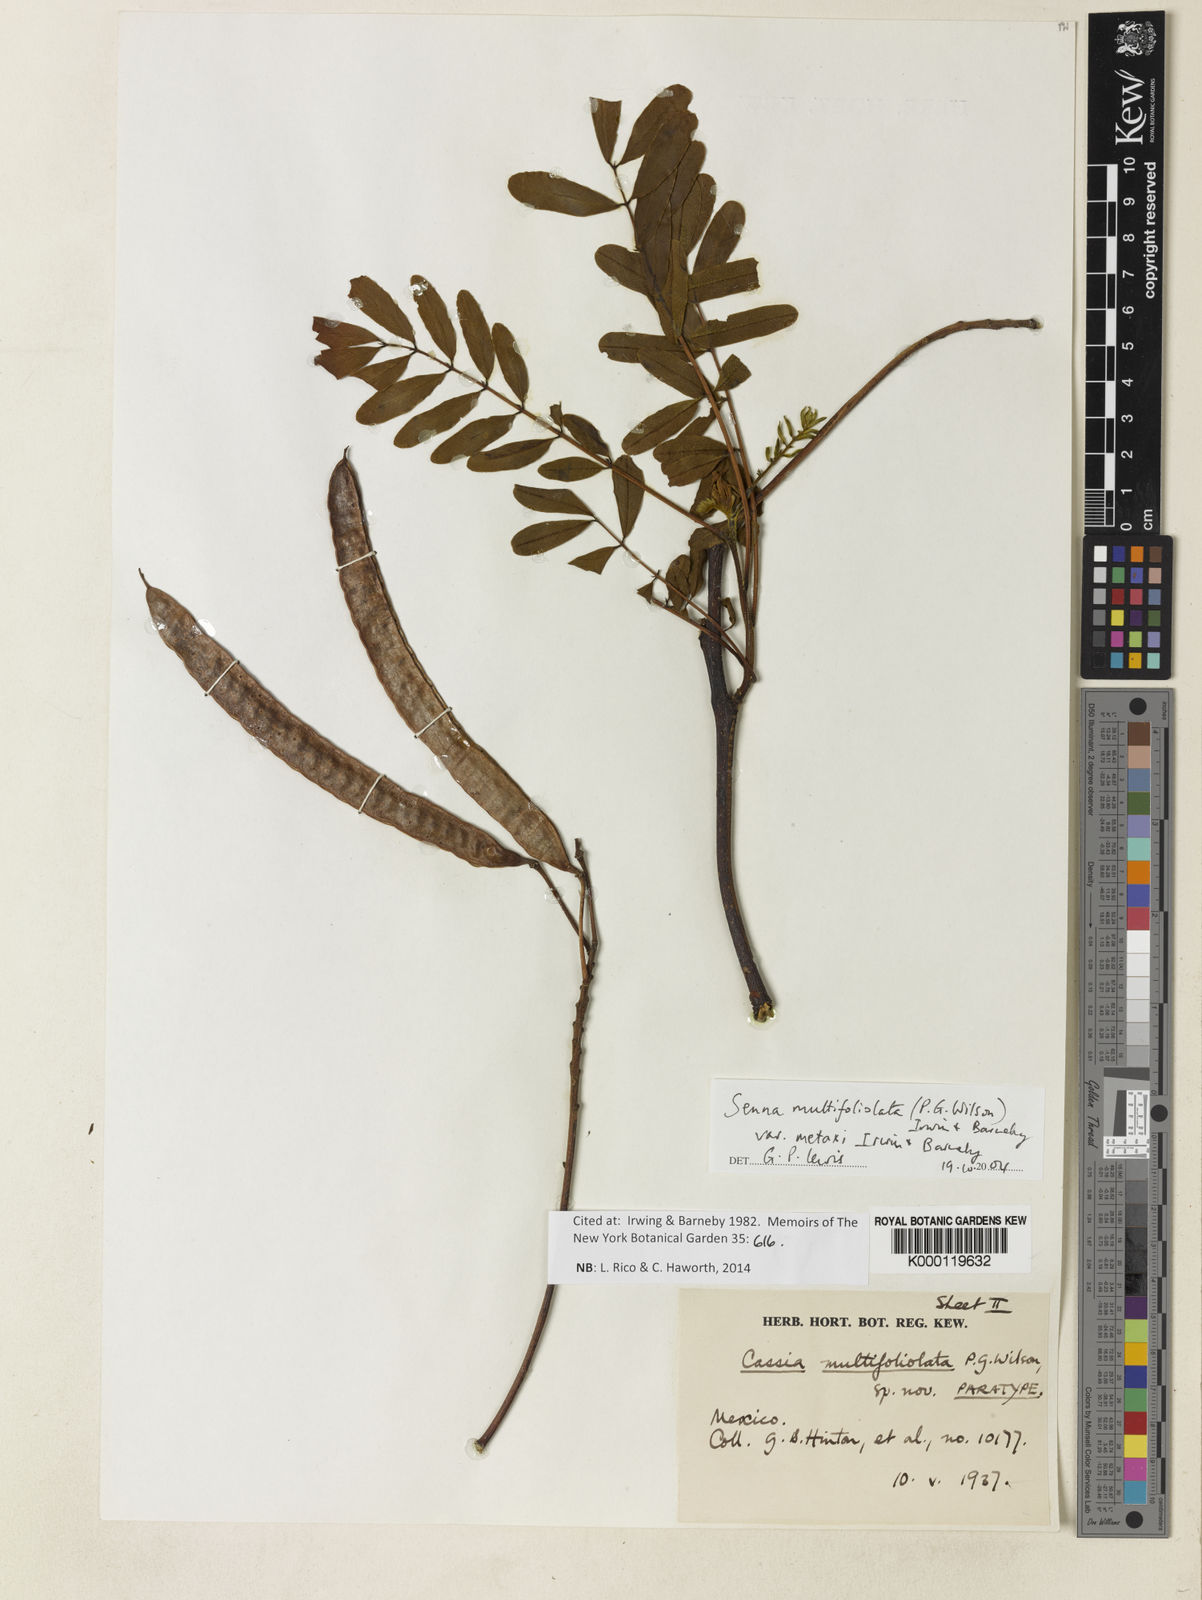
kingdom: Plantae
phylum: Tracheophyta
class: Magnoliopsida
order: Fabales
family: Fabaceae
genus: Senna
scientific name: Senna multifoliolata
